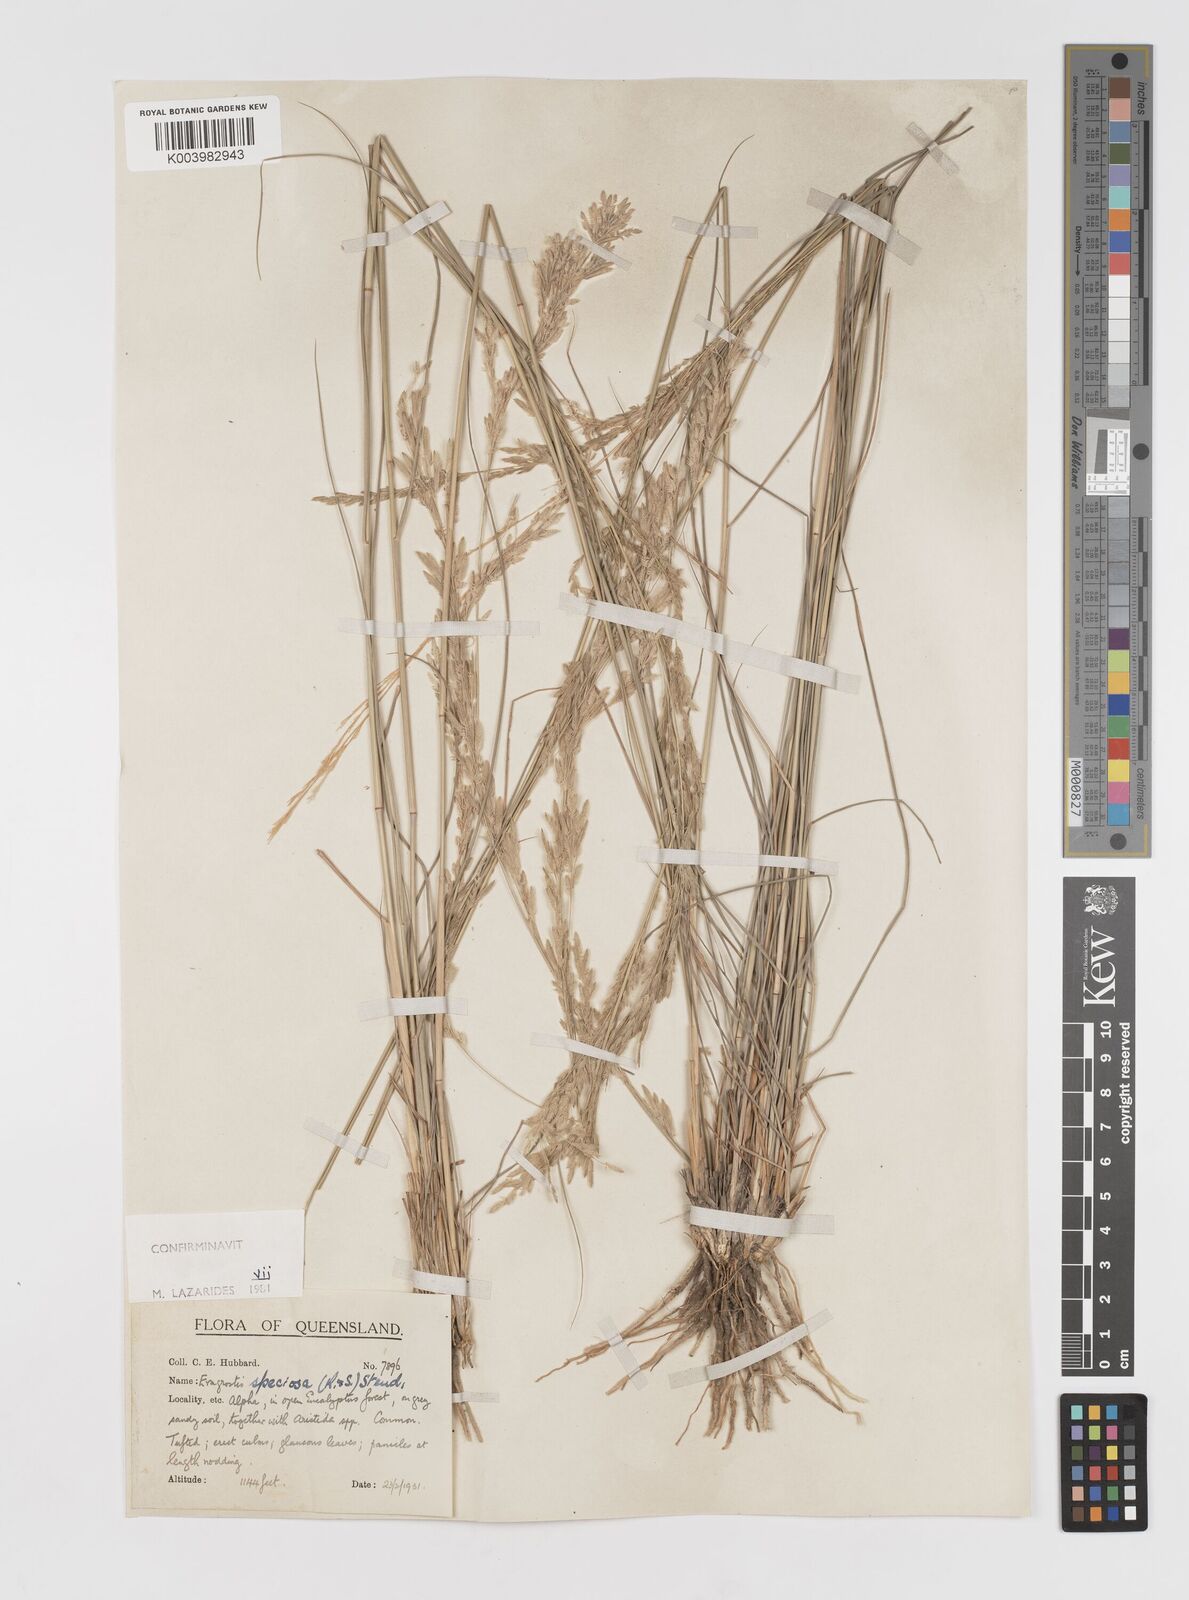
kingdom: Plantae
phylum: Tracheophyta
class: Liliopsida
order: Poales
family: Poaceae
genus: Eragrostis
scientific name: Eragrostis speciosa
